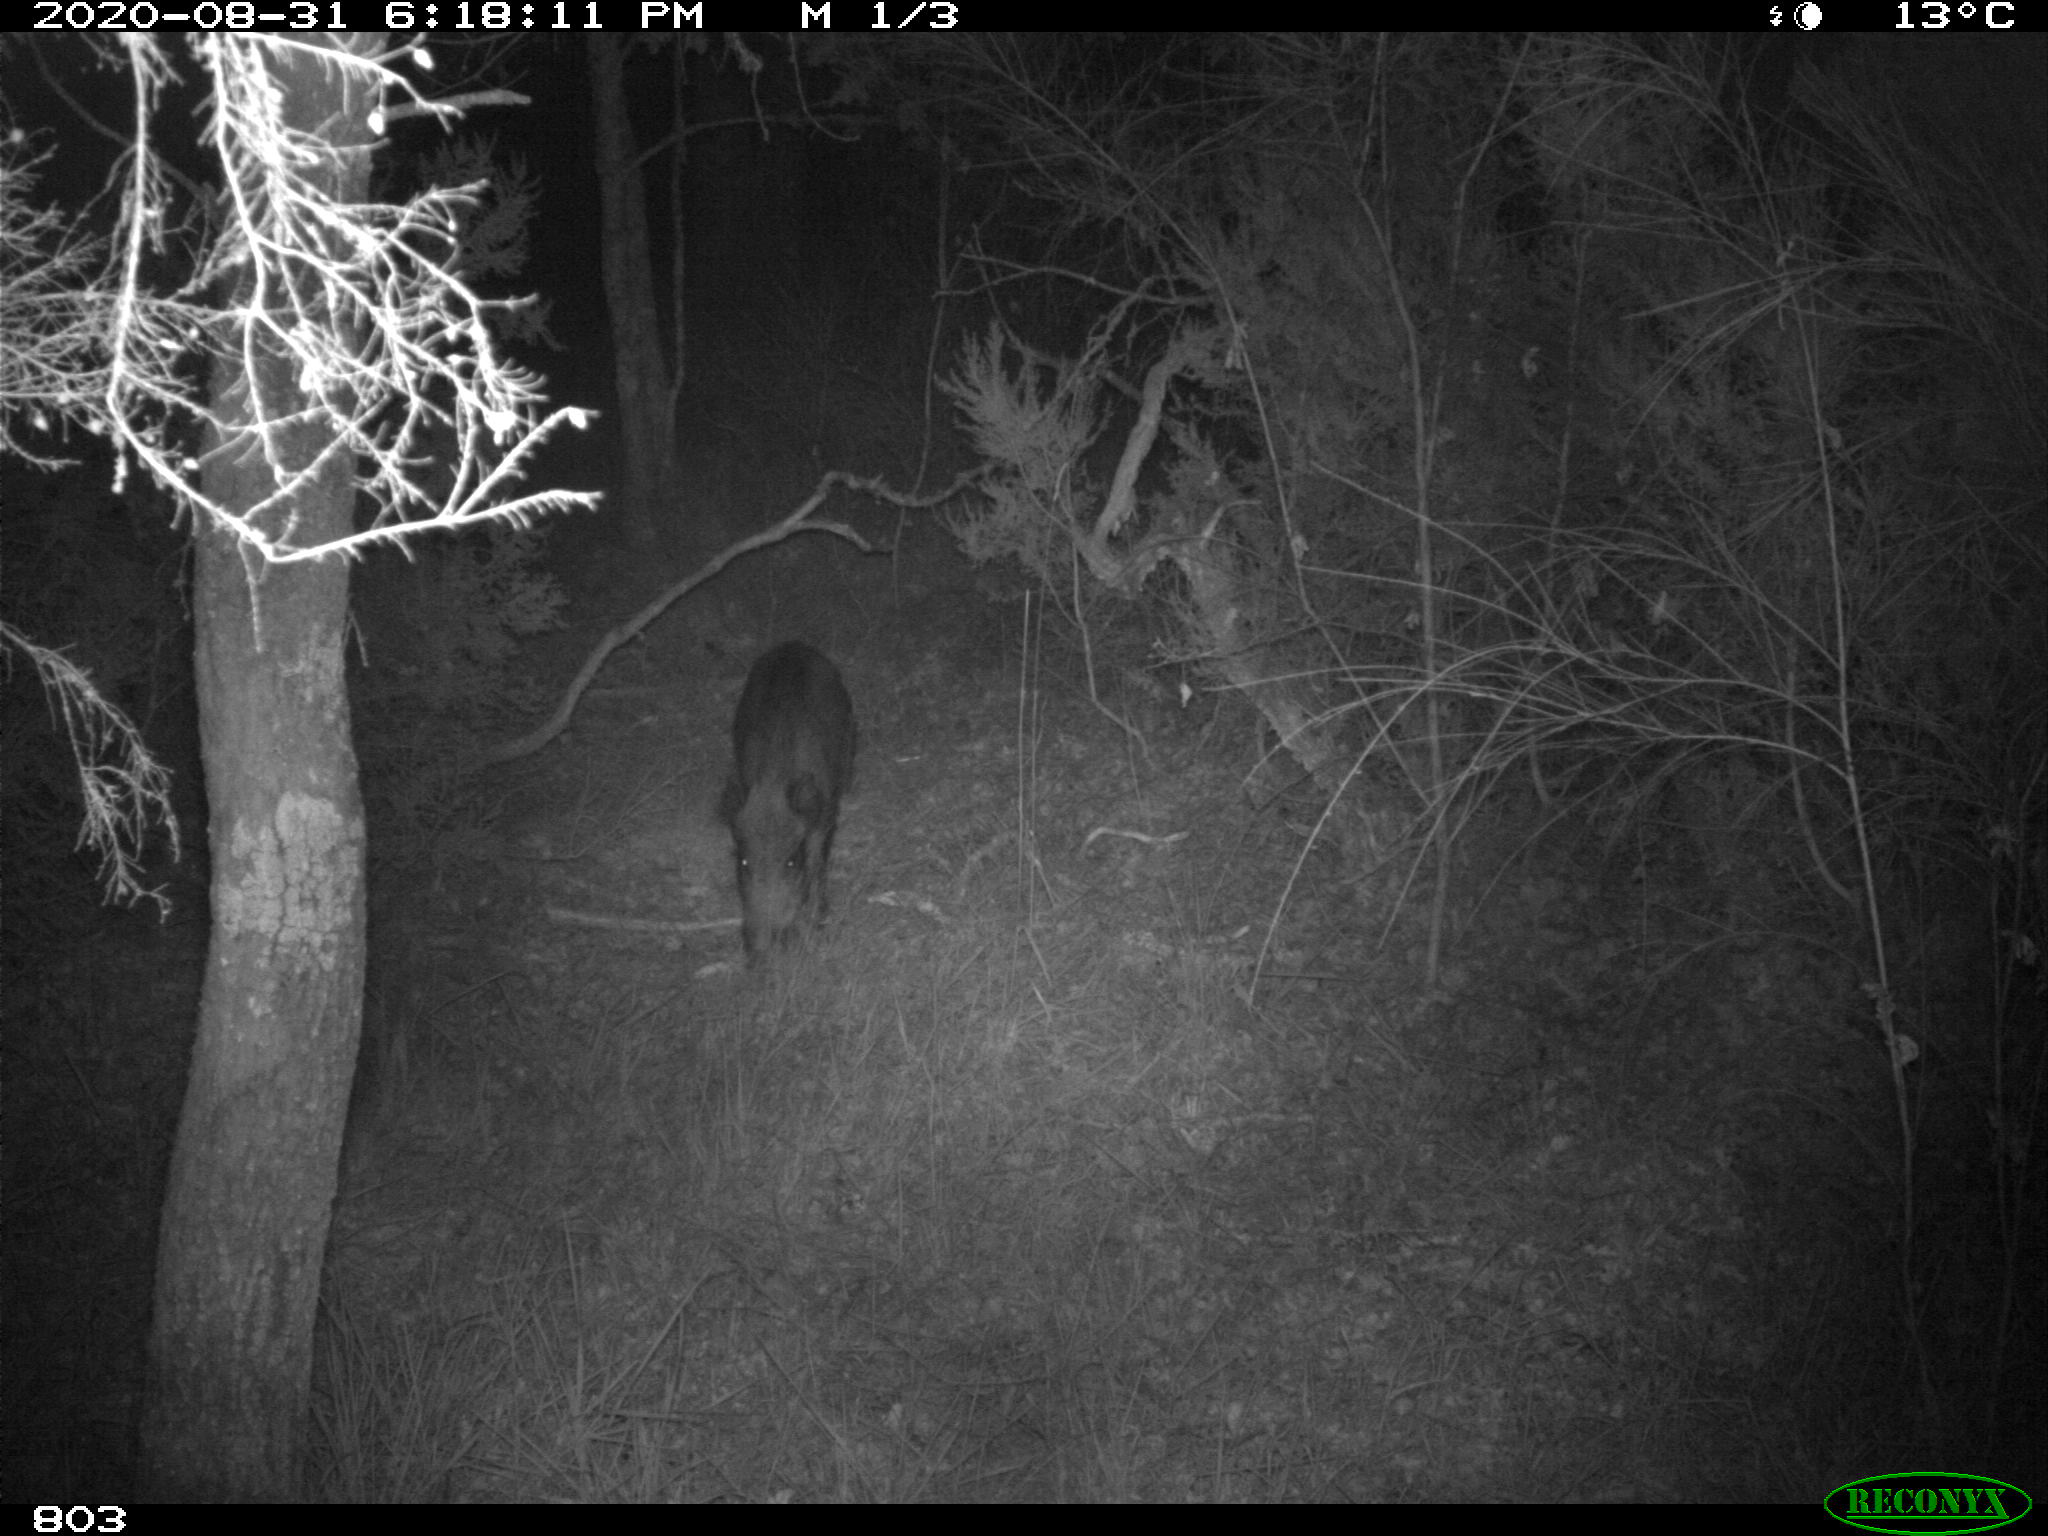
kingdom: Animalia
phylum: Chordata
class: Mammalia
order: Artiodactyla
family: Suidae
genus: Sus
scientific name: Sus scrofa
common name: Wild boar
